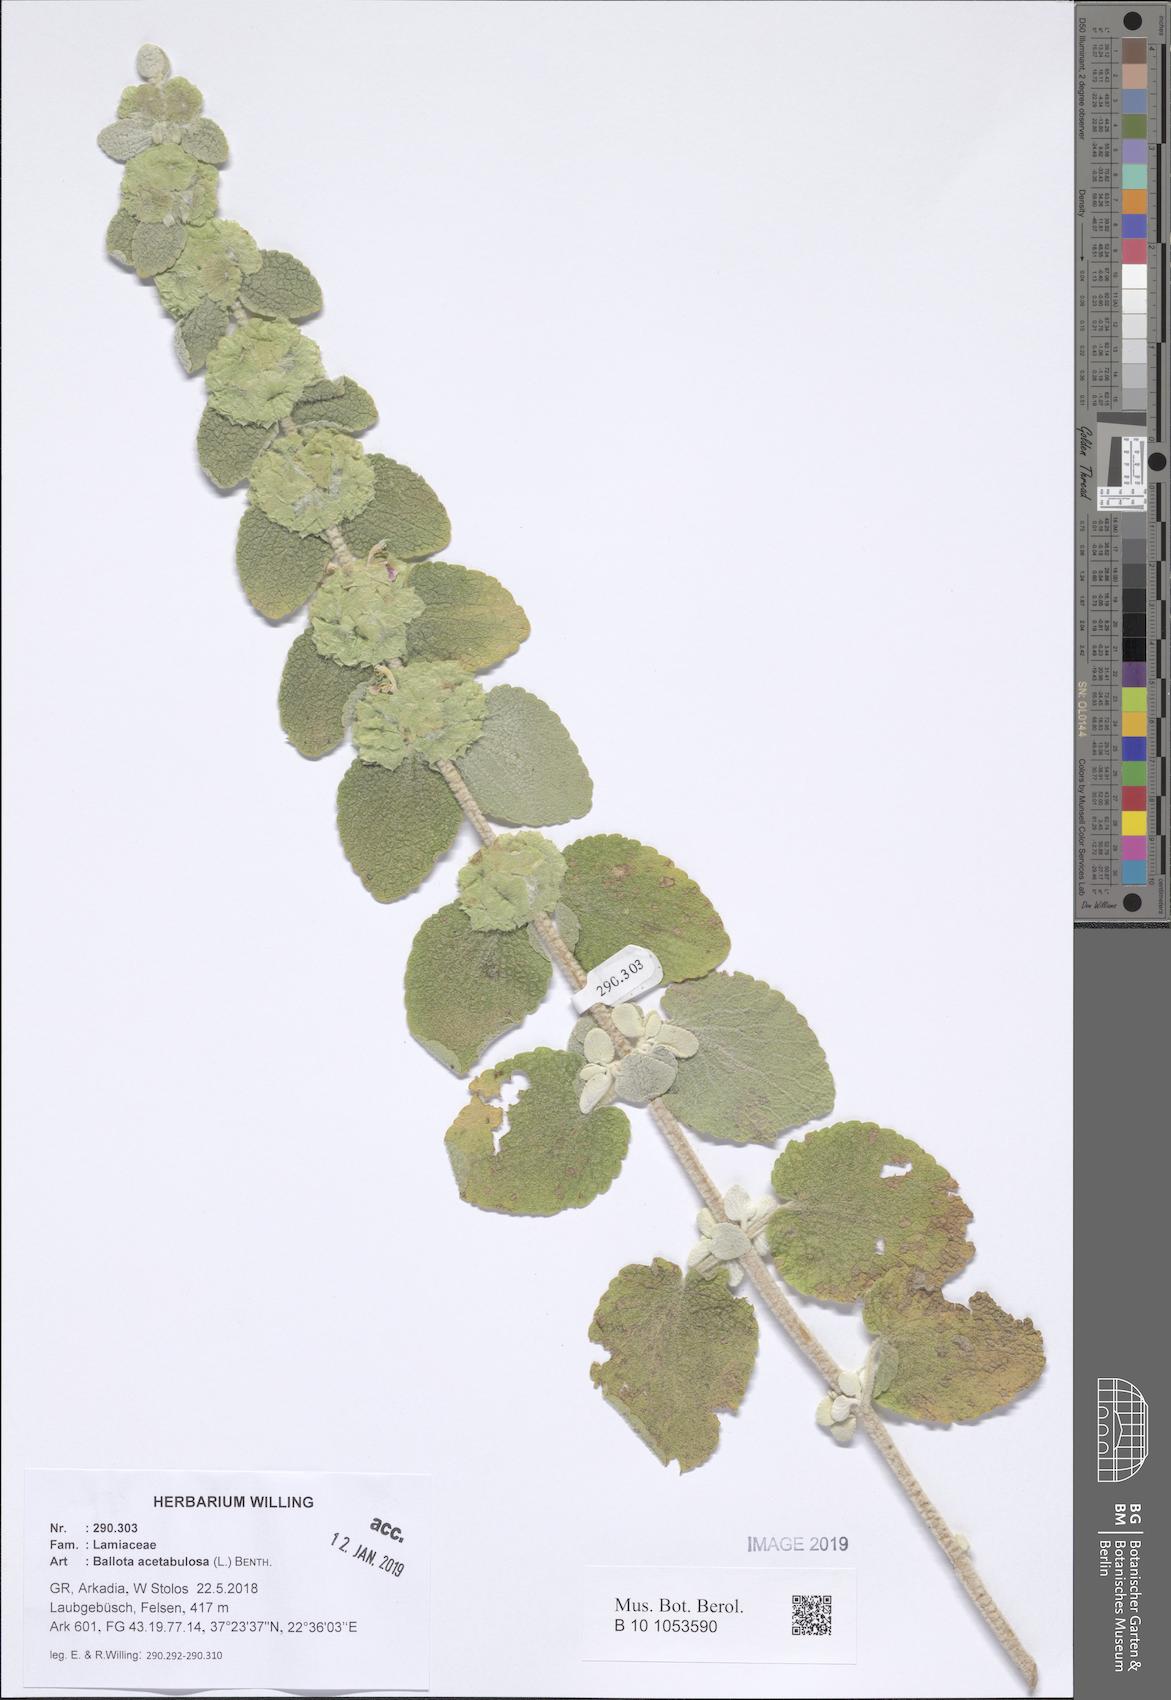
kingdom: Plantae
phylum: Tracheophyta
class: Magnoliopsida
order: Lamiales
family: Lamiaceae
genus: Pseudodictamnus
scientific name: Pseudodictamnus acetabulosus
